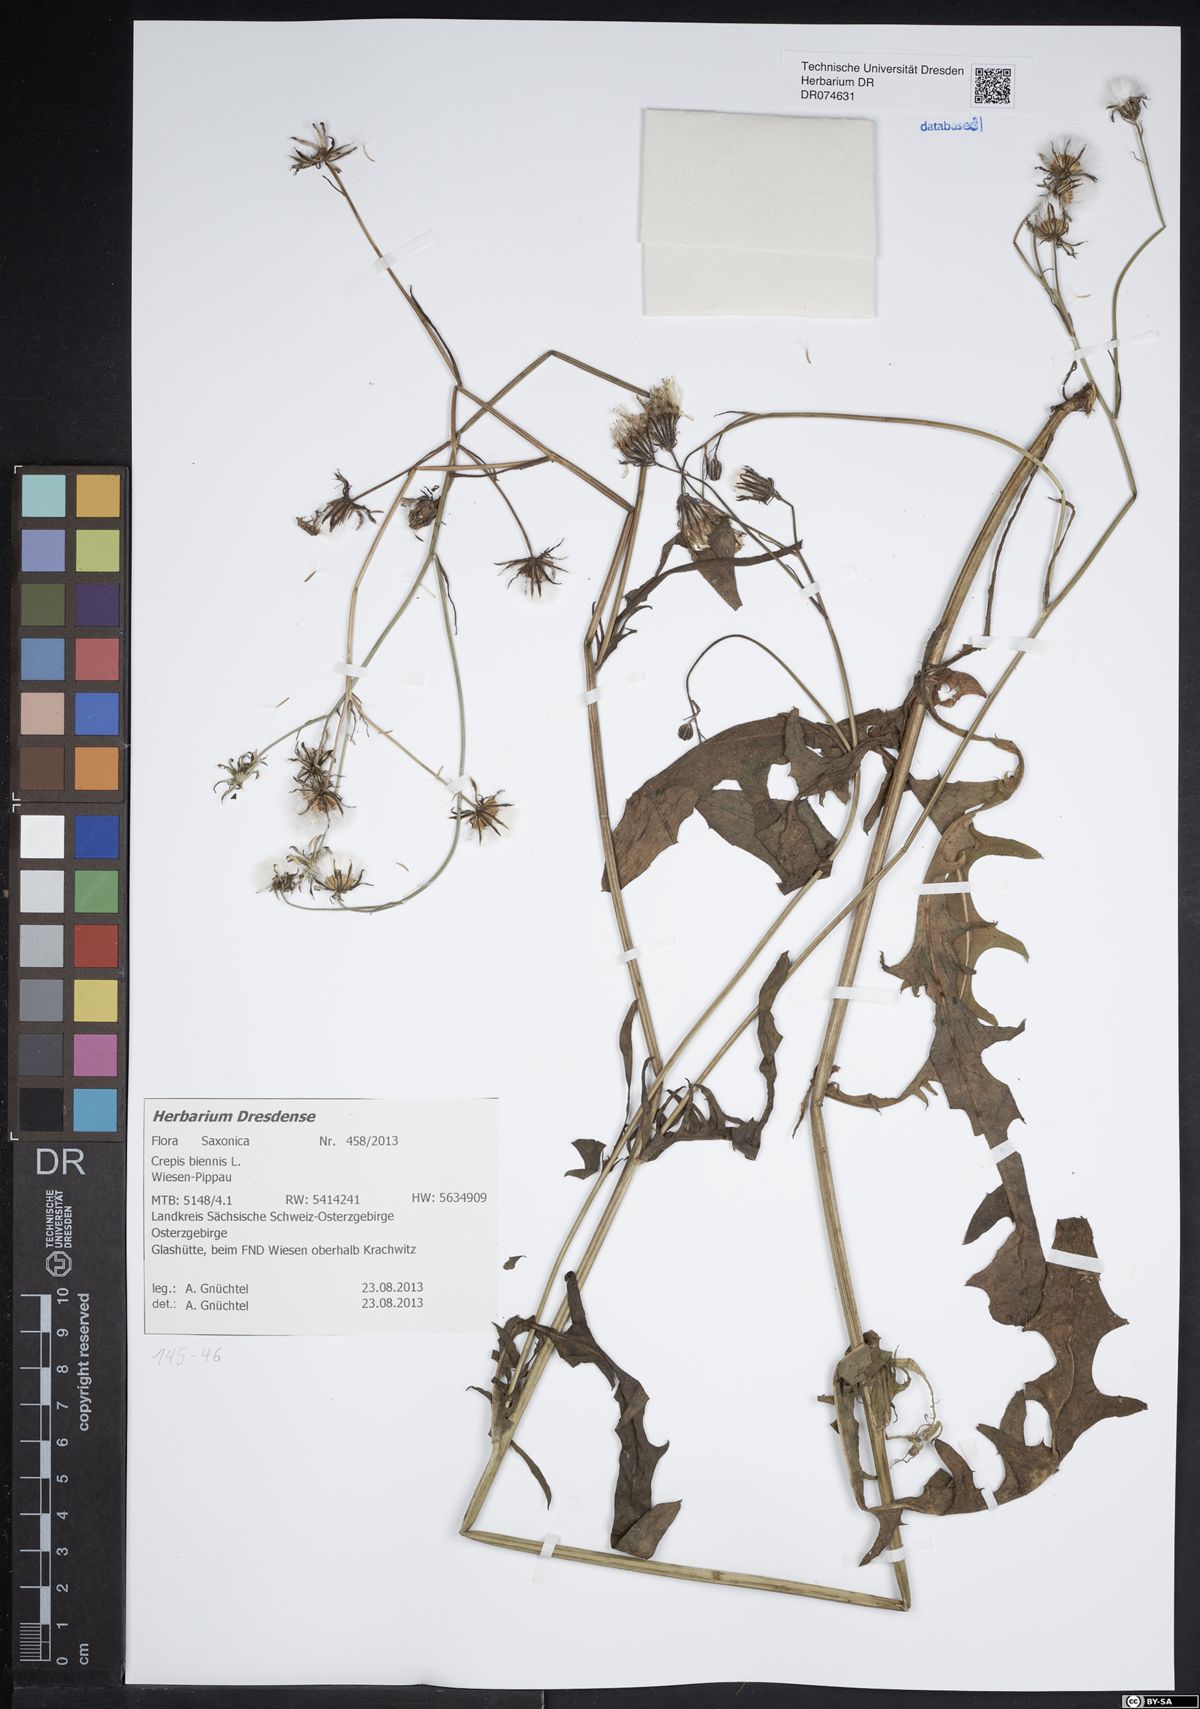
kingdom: Plantae
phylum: Tracheophyta
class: Magnoliopsida
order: Asterales
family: Asteraceae
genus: Crepis
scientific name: Crepis biennis
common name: Rough hawk's-beard
